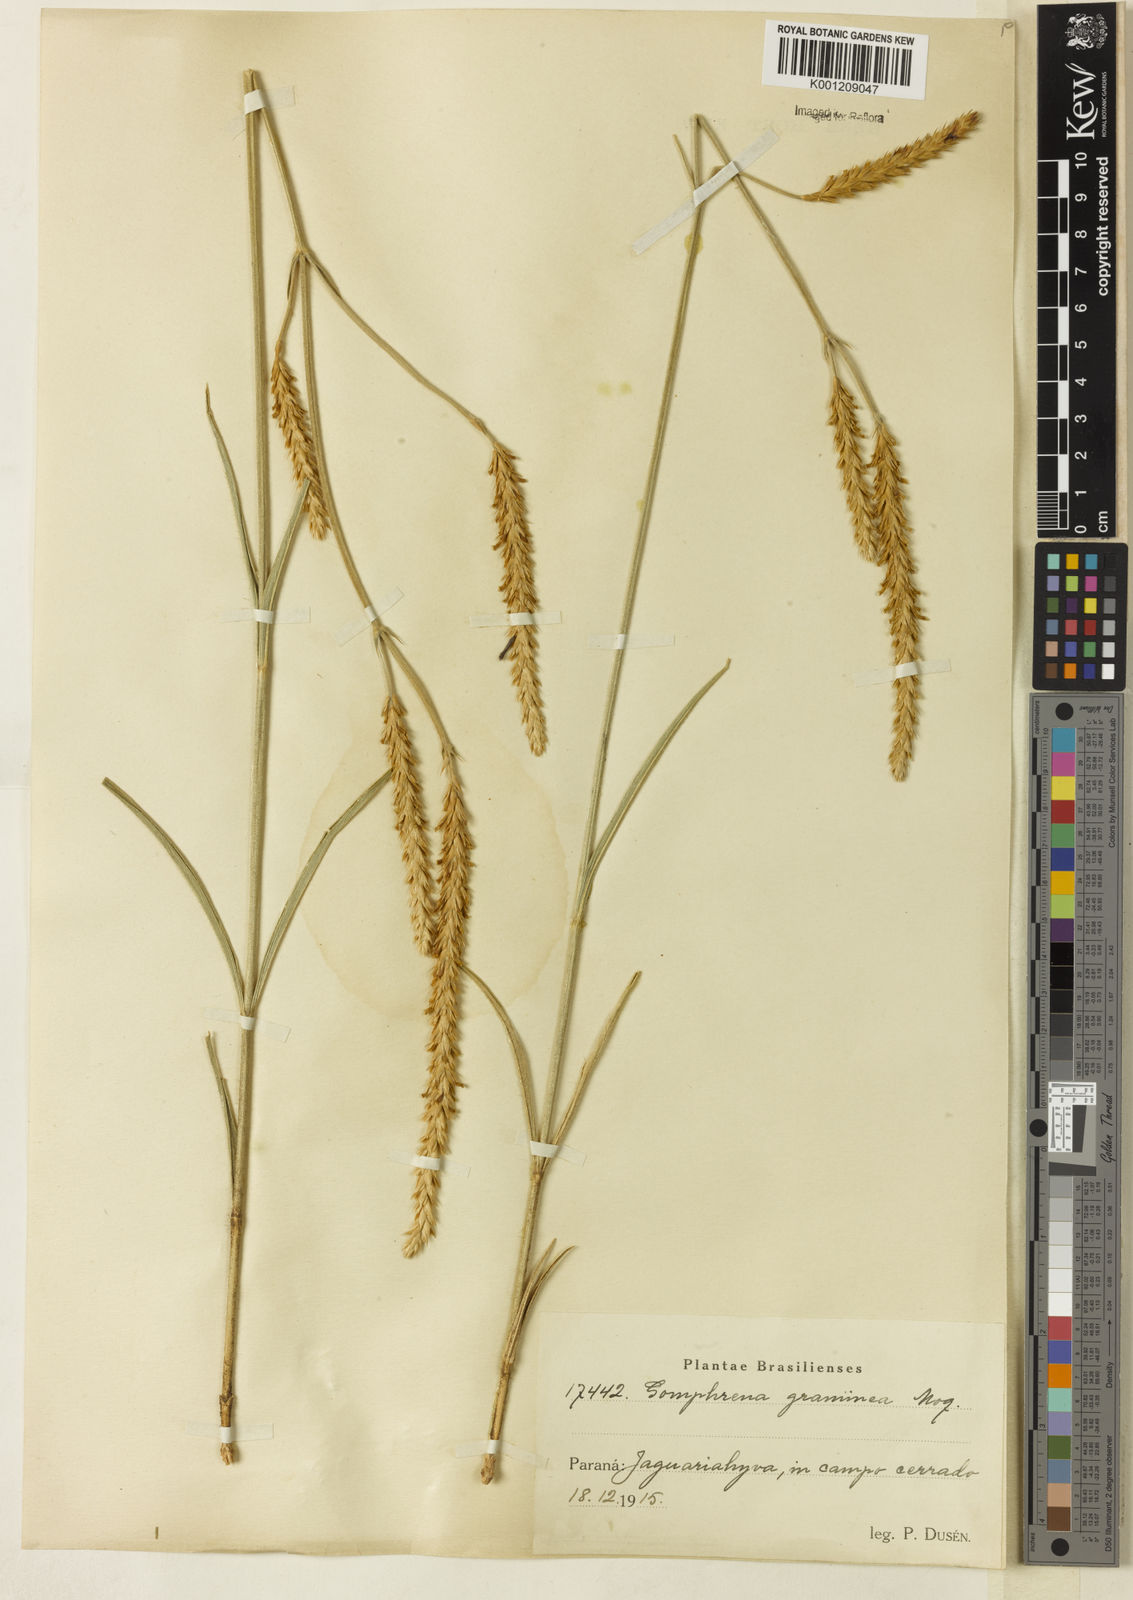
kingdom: Plantae
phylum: Tracheophyta
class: Magnoliopsida
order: Caryophyllales
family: Amaranthaceae
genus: Gomphrena
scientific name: Gomphrena graminea
